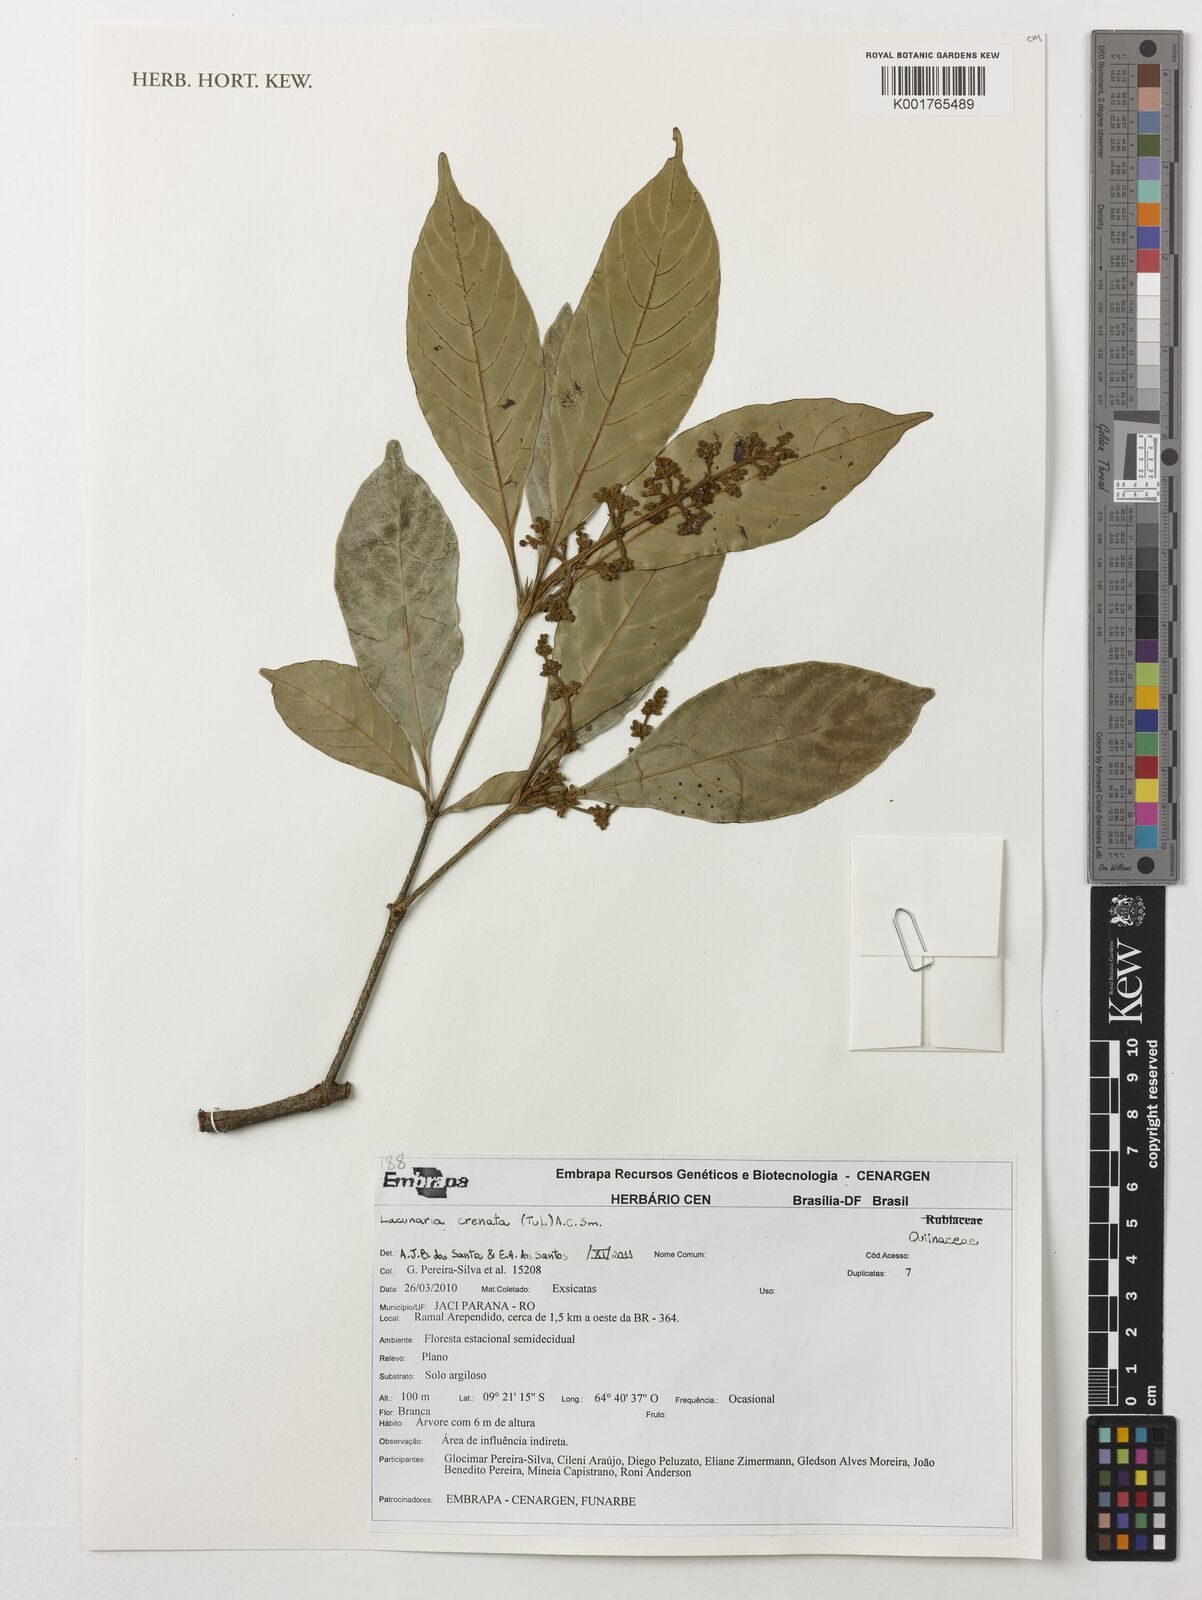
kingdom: Plantae
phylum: Tracheophyta
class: Magnoliopsida
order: Malpighiales
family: Quiinaceae
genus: Lacunaria
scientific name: Lacunaria crenata
